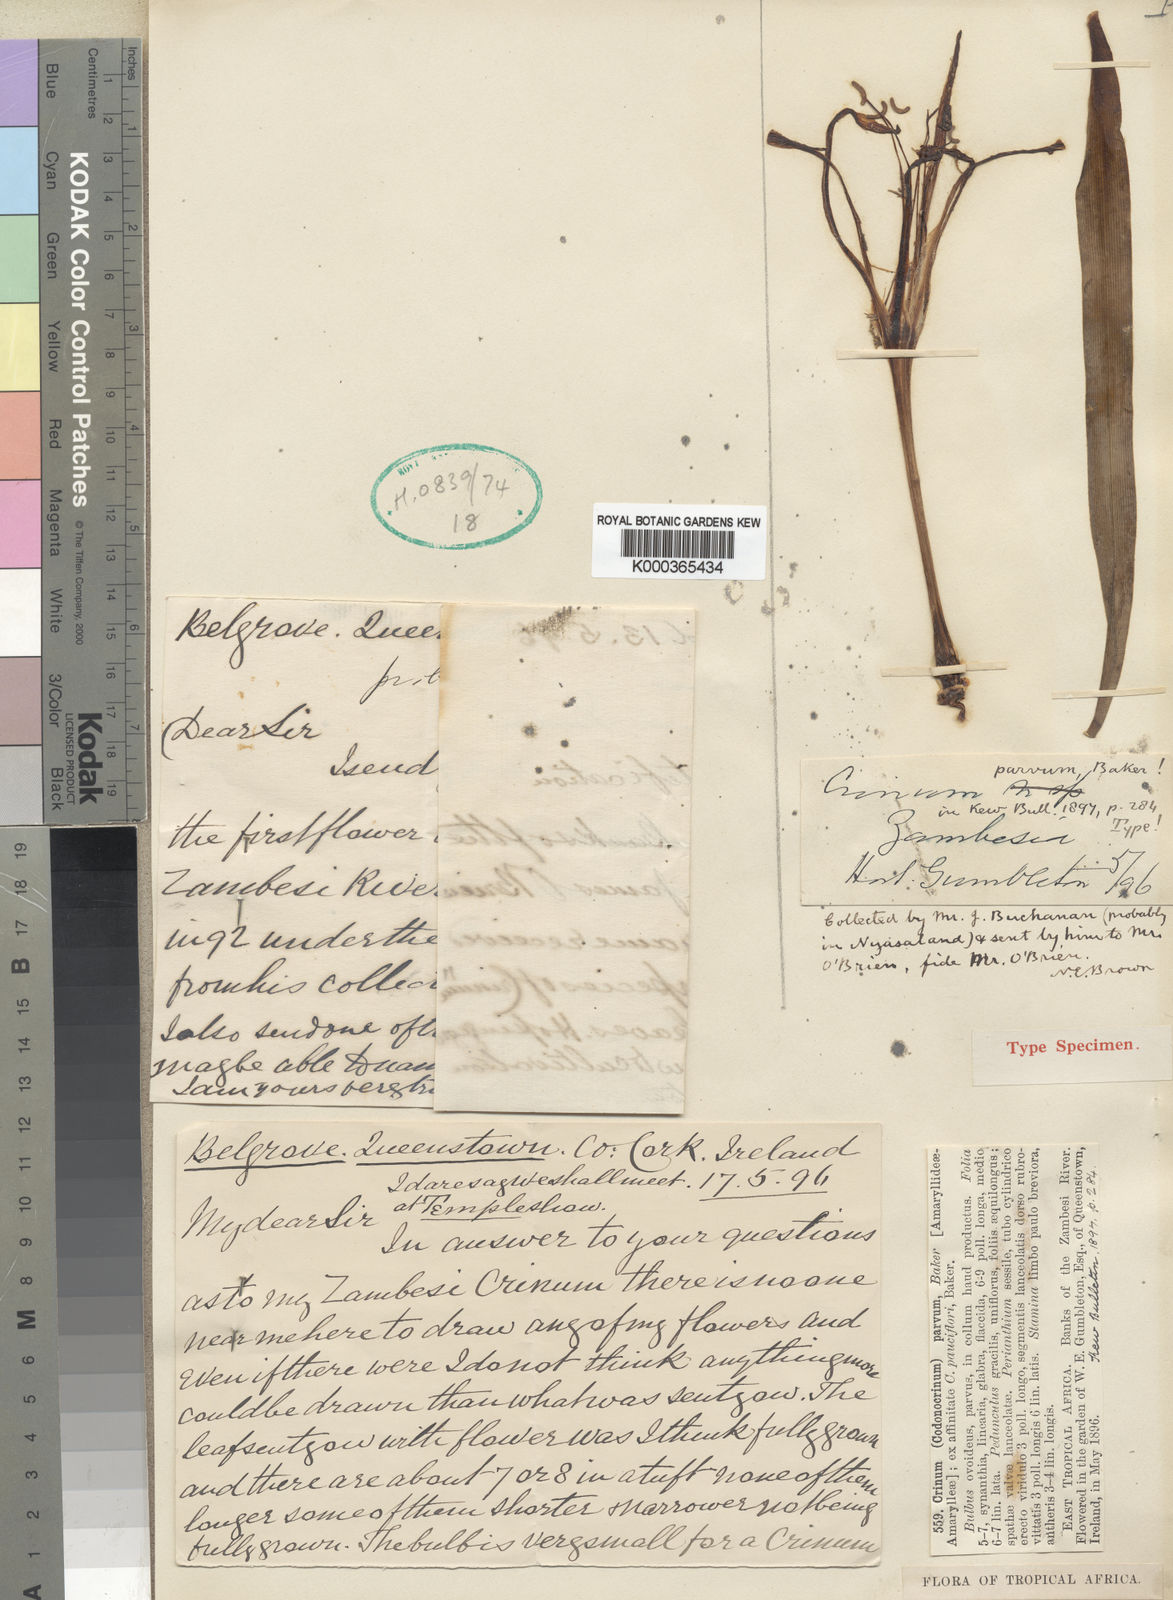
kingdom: Plantae
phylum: Tracheophyta
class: Liliopsida
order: Asparagales
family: Amaryllidaceae
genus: Crinum
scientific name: Crinum parvum
